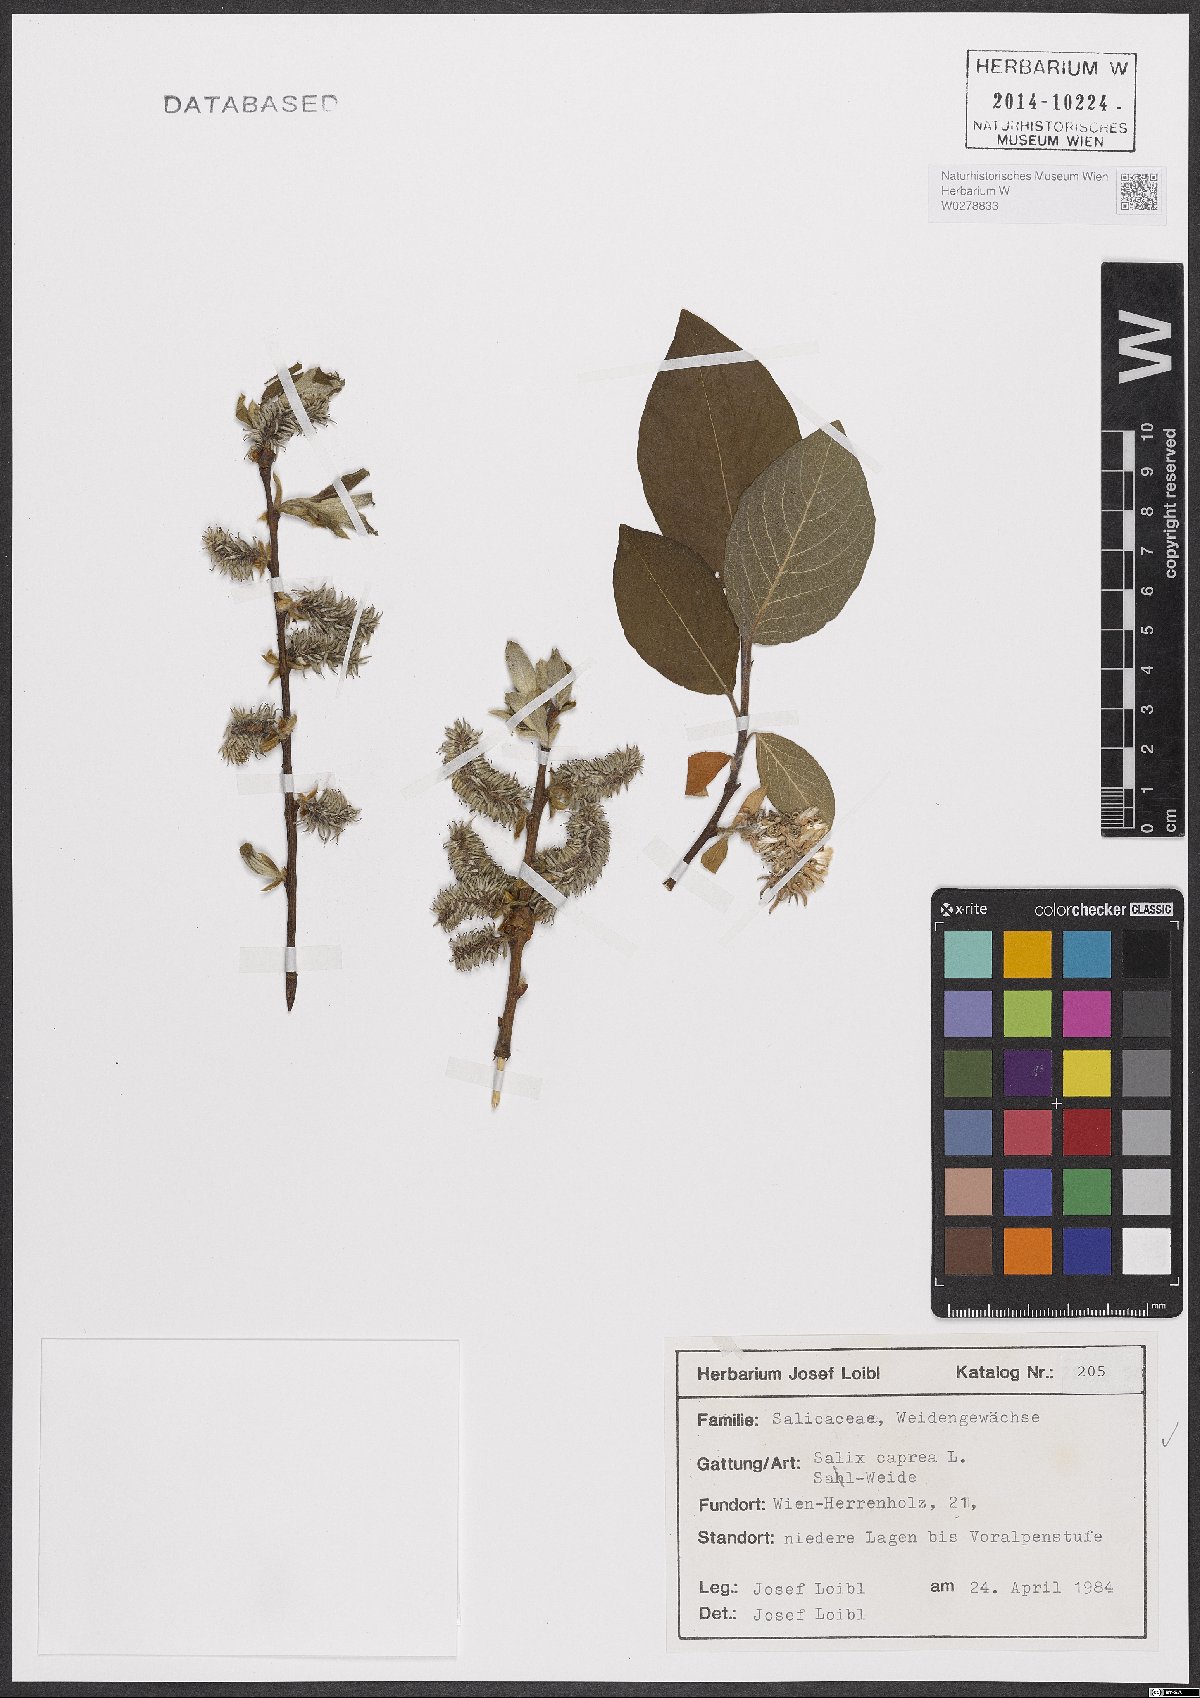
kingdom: Plantae
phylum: Tracheophyta
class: Magnoliopsida
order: Malpighiales
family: Salicaceae
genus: Salix
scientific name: Salix caprea
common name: Goat willow
